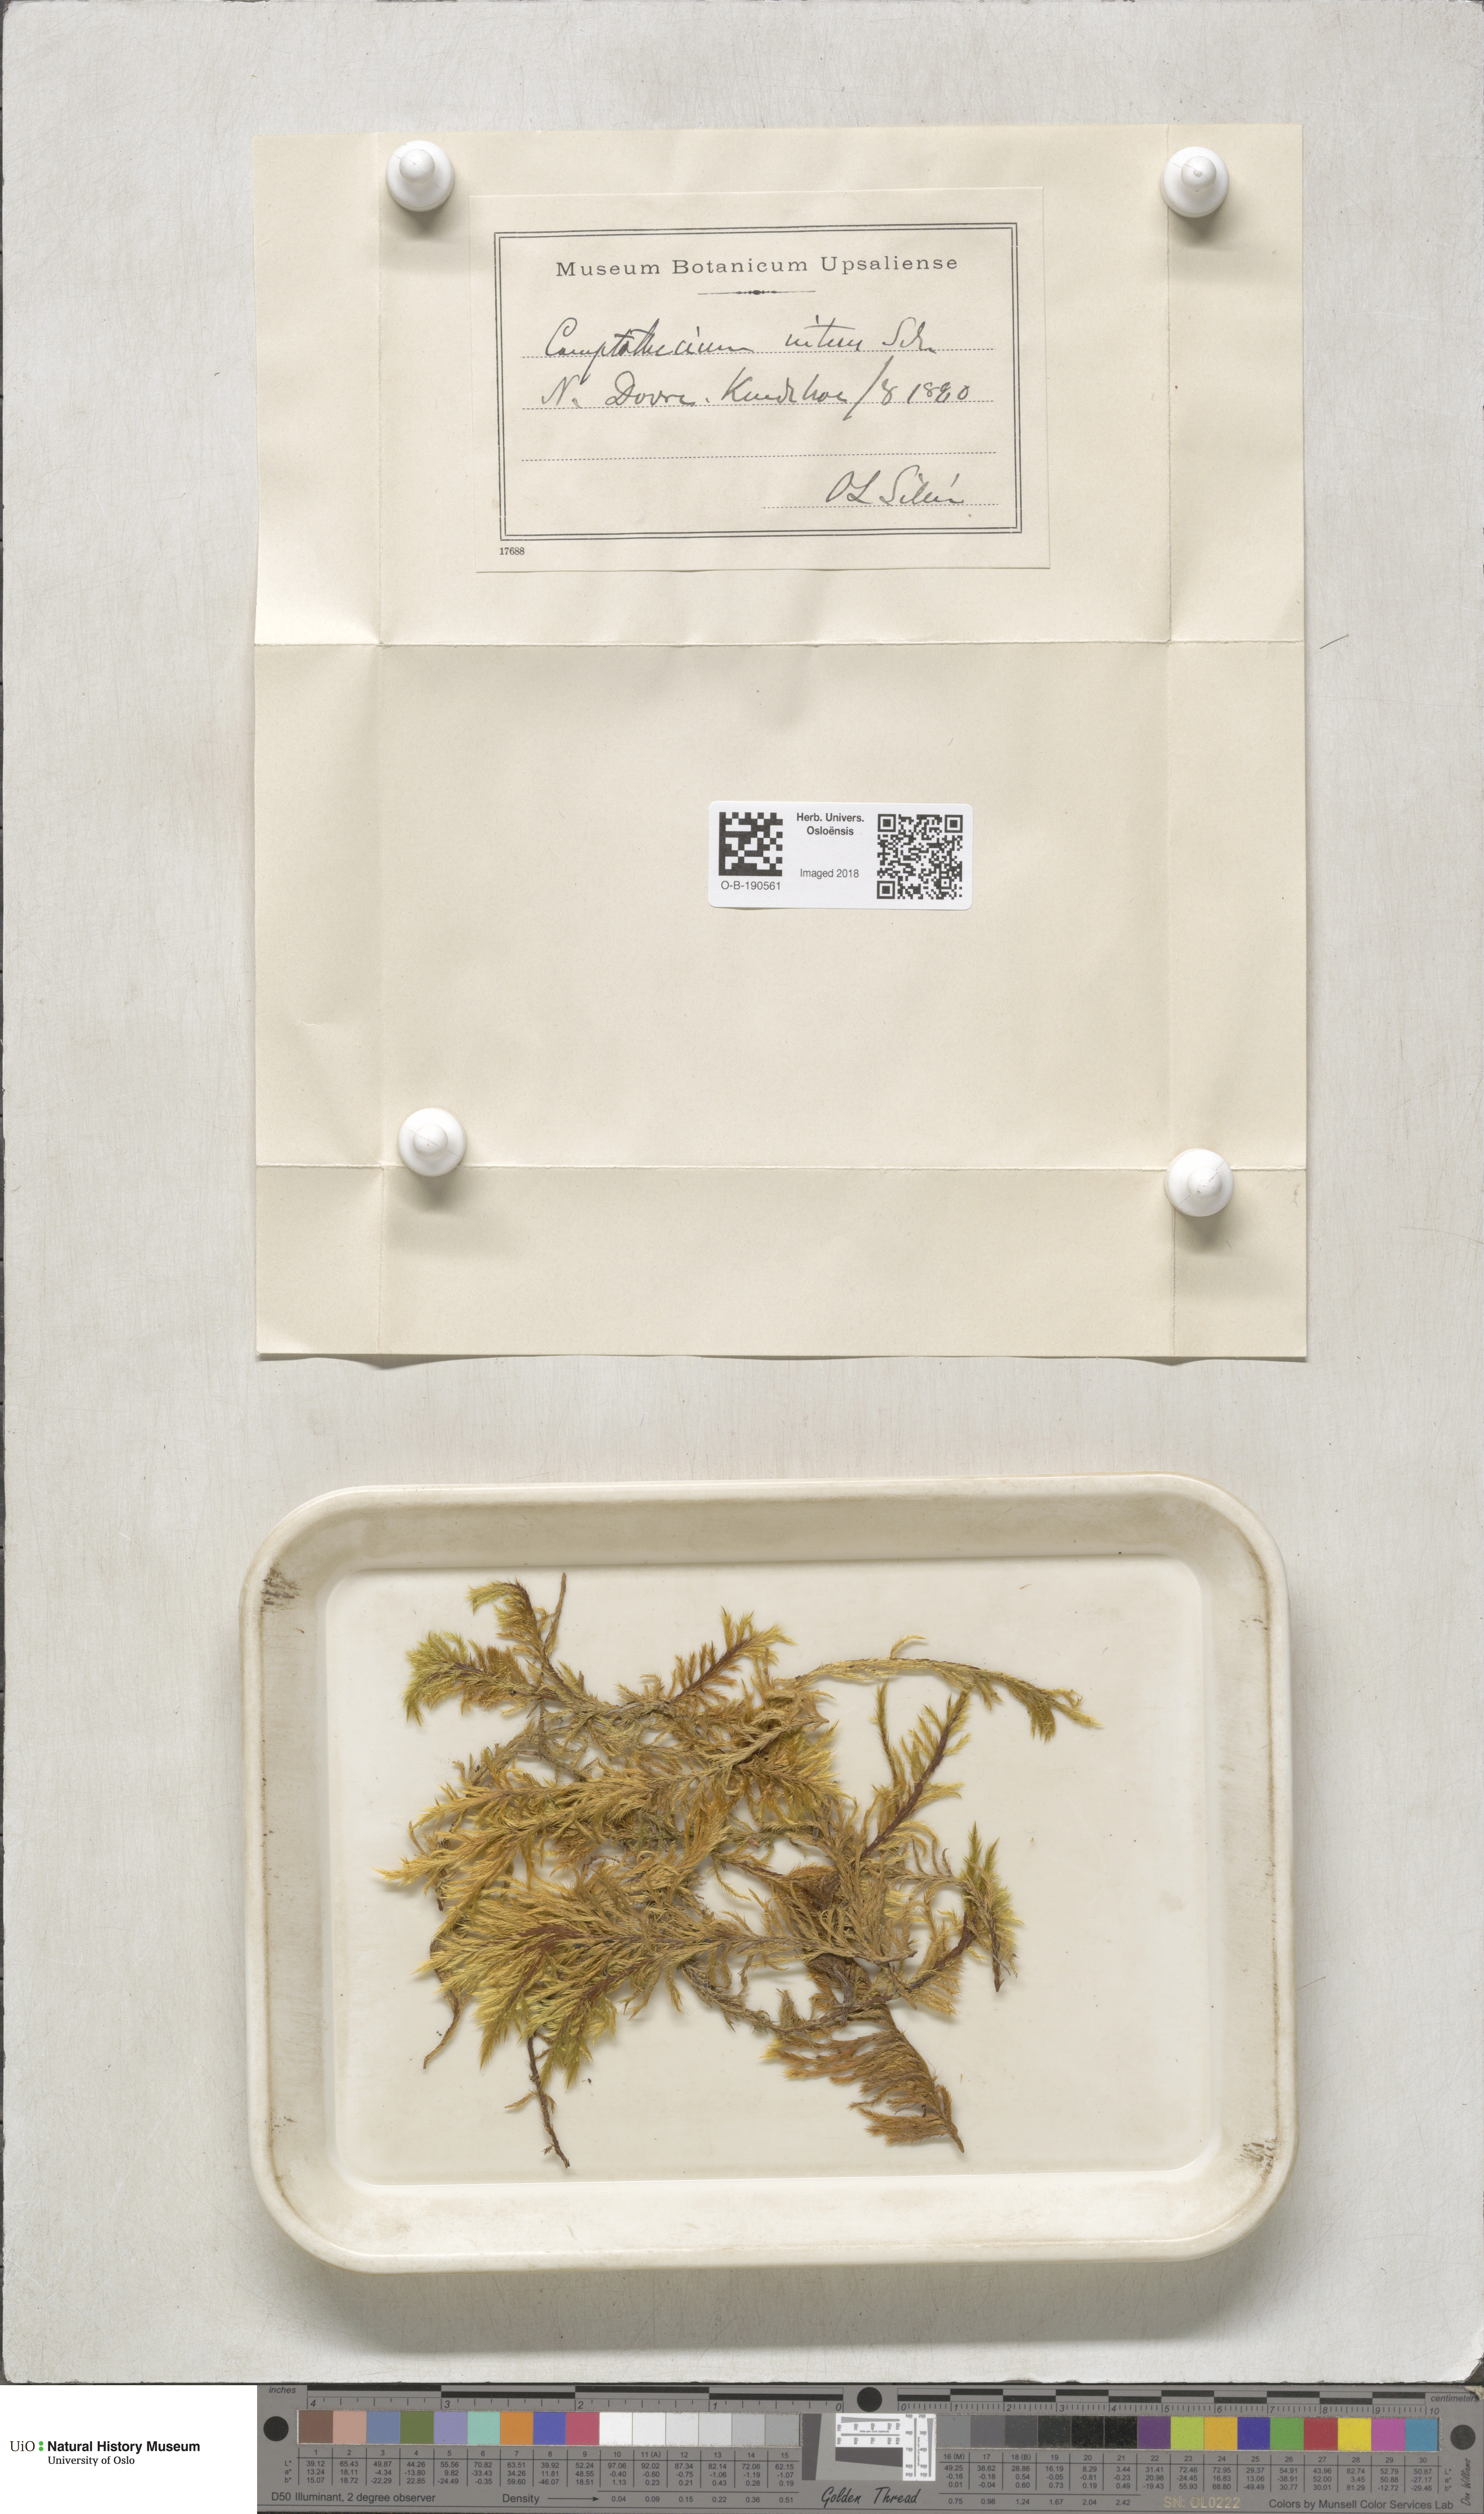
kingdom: Plantae
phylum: Bryophyta
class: Bryopsida
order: Hypnales
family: Amblystegiaceae
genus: Tomentypnum
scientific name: Tomentypnum nitens
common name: Golden fuzzy fen moss
